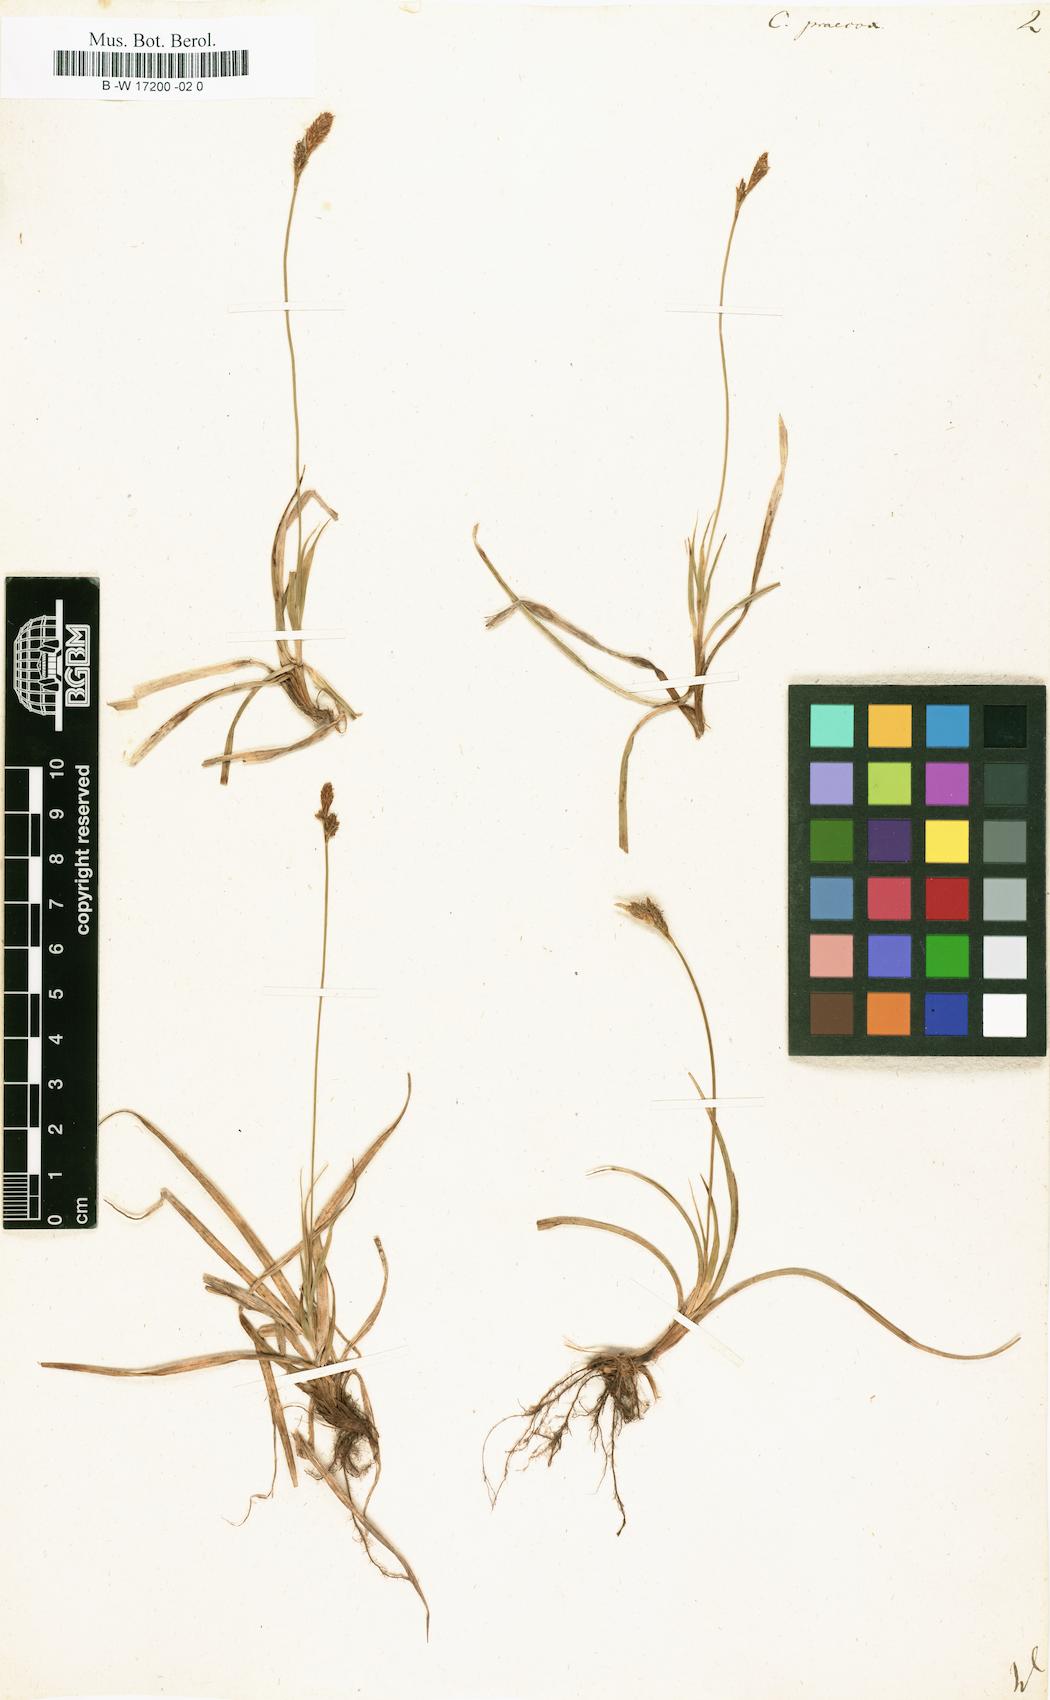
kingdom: Plantae
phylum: Tracheophyta
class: Liliopsida
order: Poales
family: Cyperaceae
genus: Carex
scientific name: Carex praecox
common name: Early sedge
